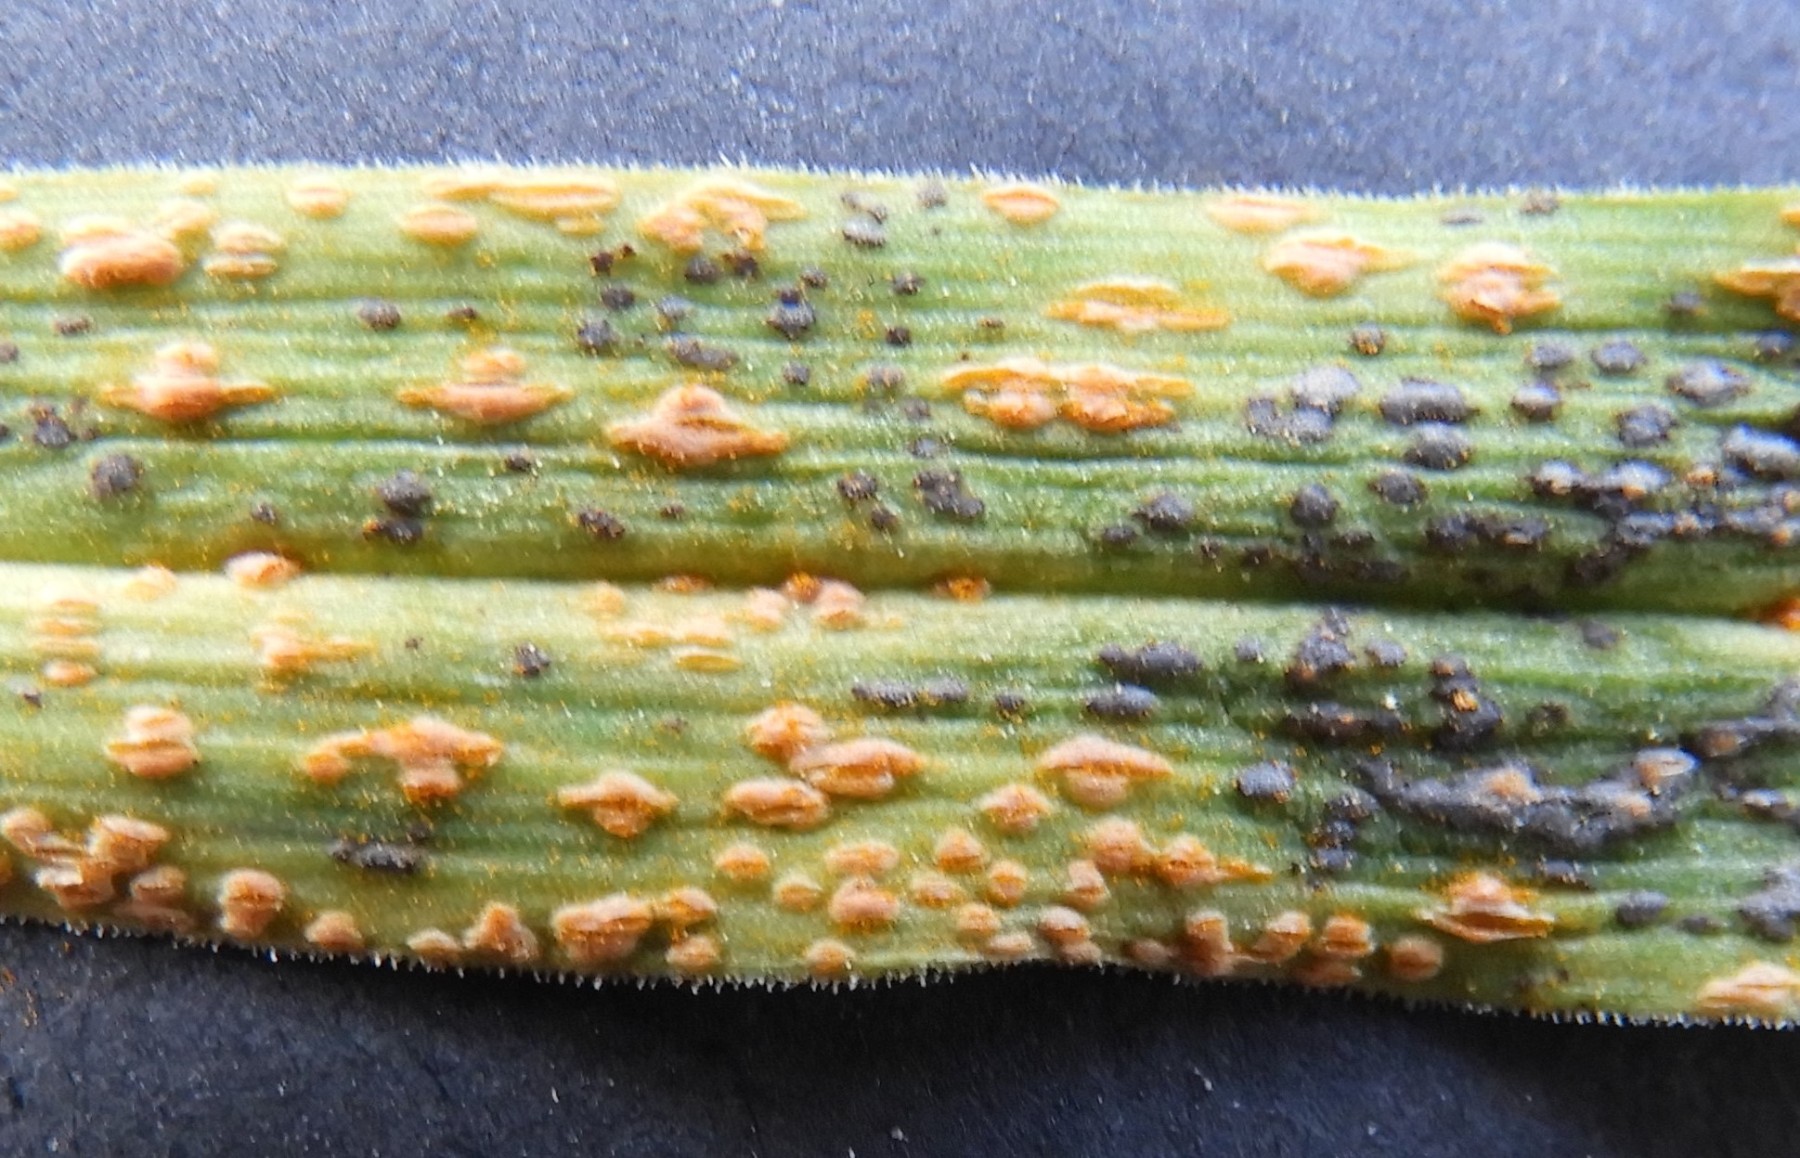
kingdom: Fungi
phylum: Basidiomycota
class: Pucciniomycetes
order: Pucciniales
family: Pucciniaceae
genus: Puccinia
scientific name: Puccinia porri
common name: Allium rust
